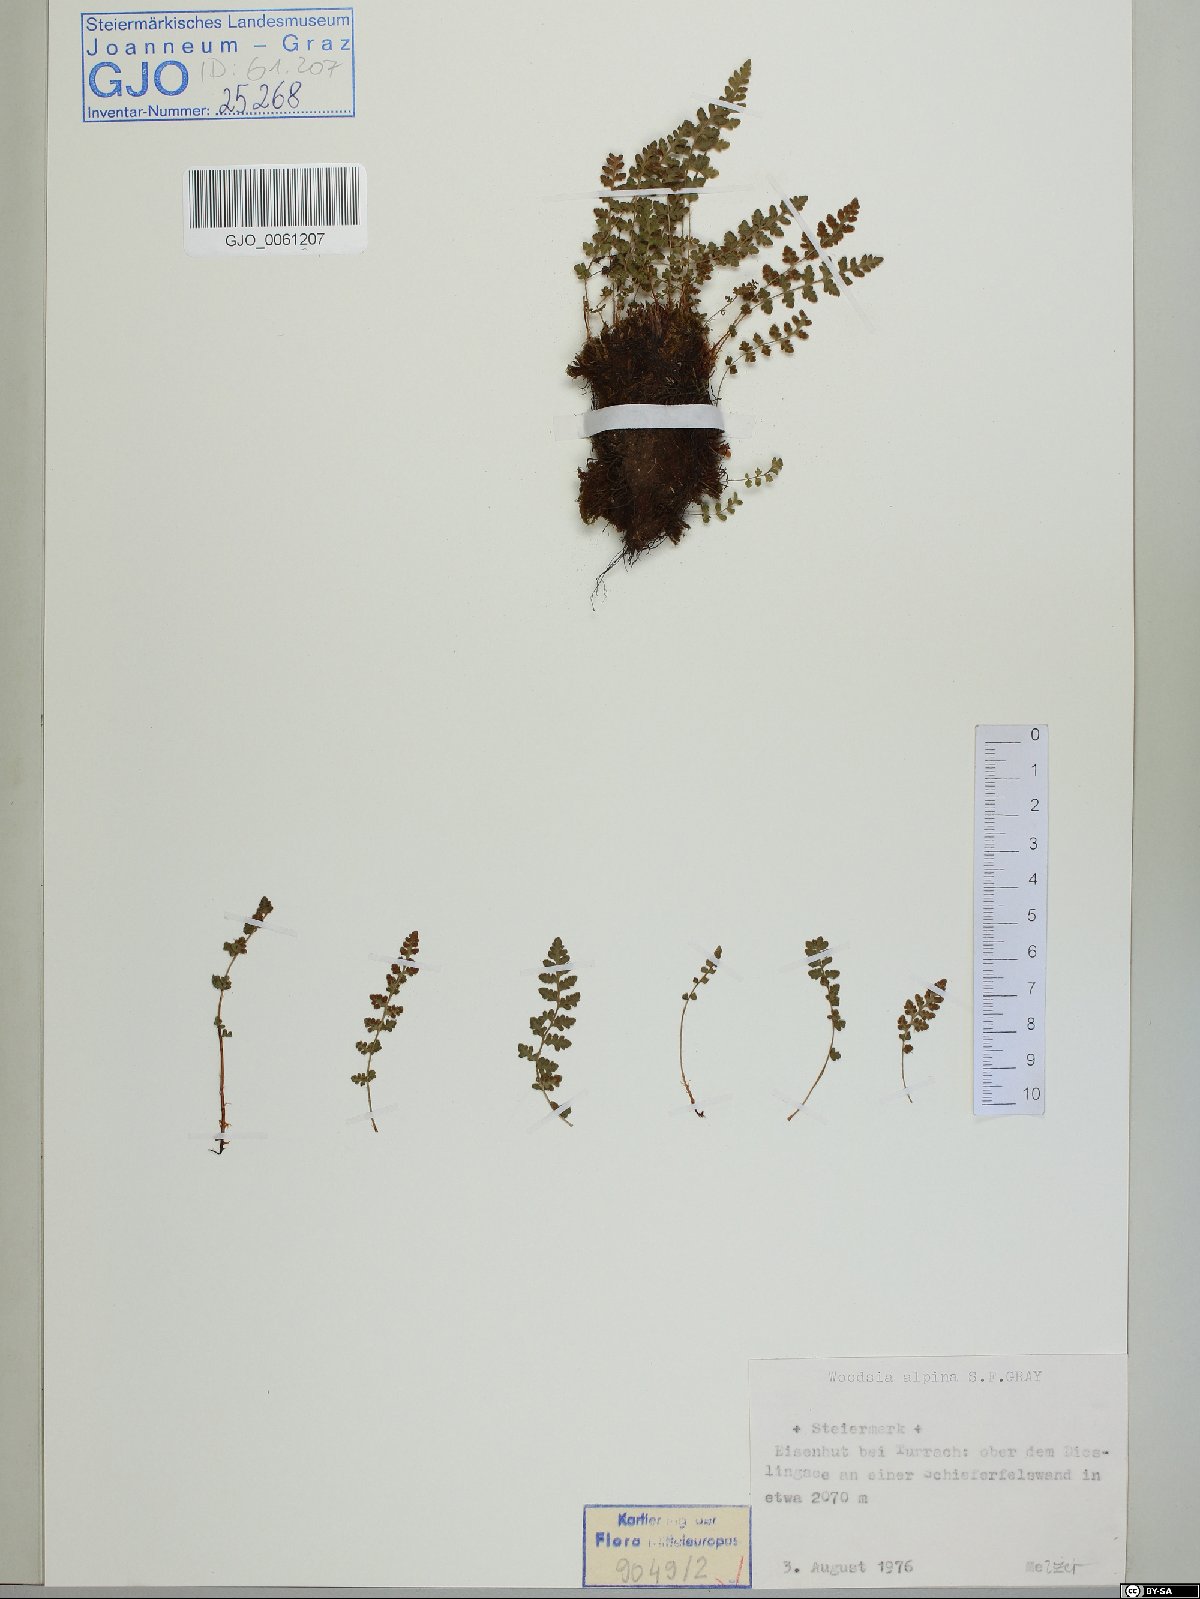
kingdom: Plantae
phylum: Tracheophyta
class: Polypodiopsida
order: Polypodiales
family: Woodsiaceae
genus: Woodsia
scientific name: Woodsia alpina
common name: Alpine woodsia
